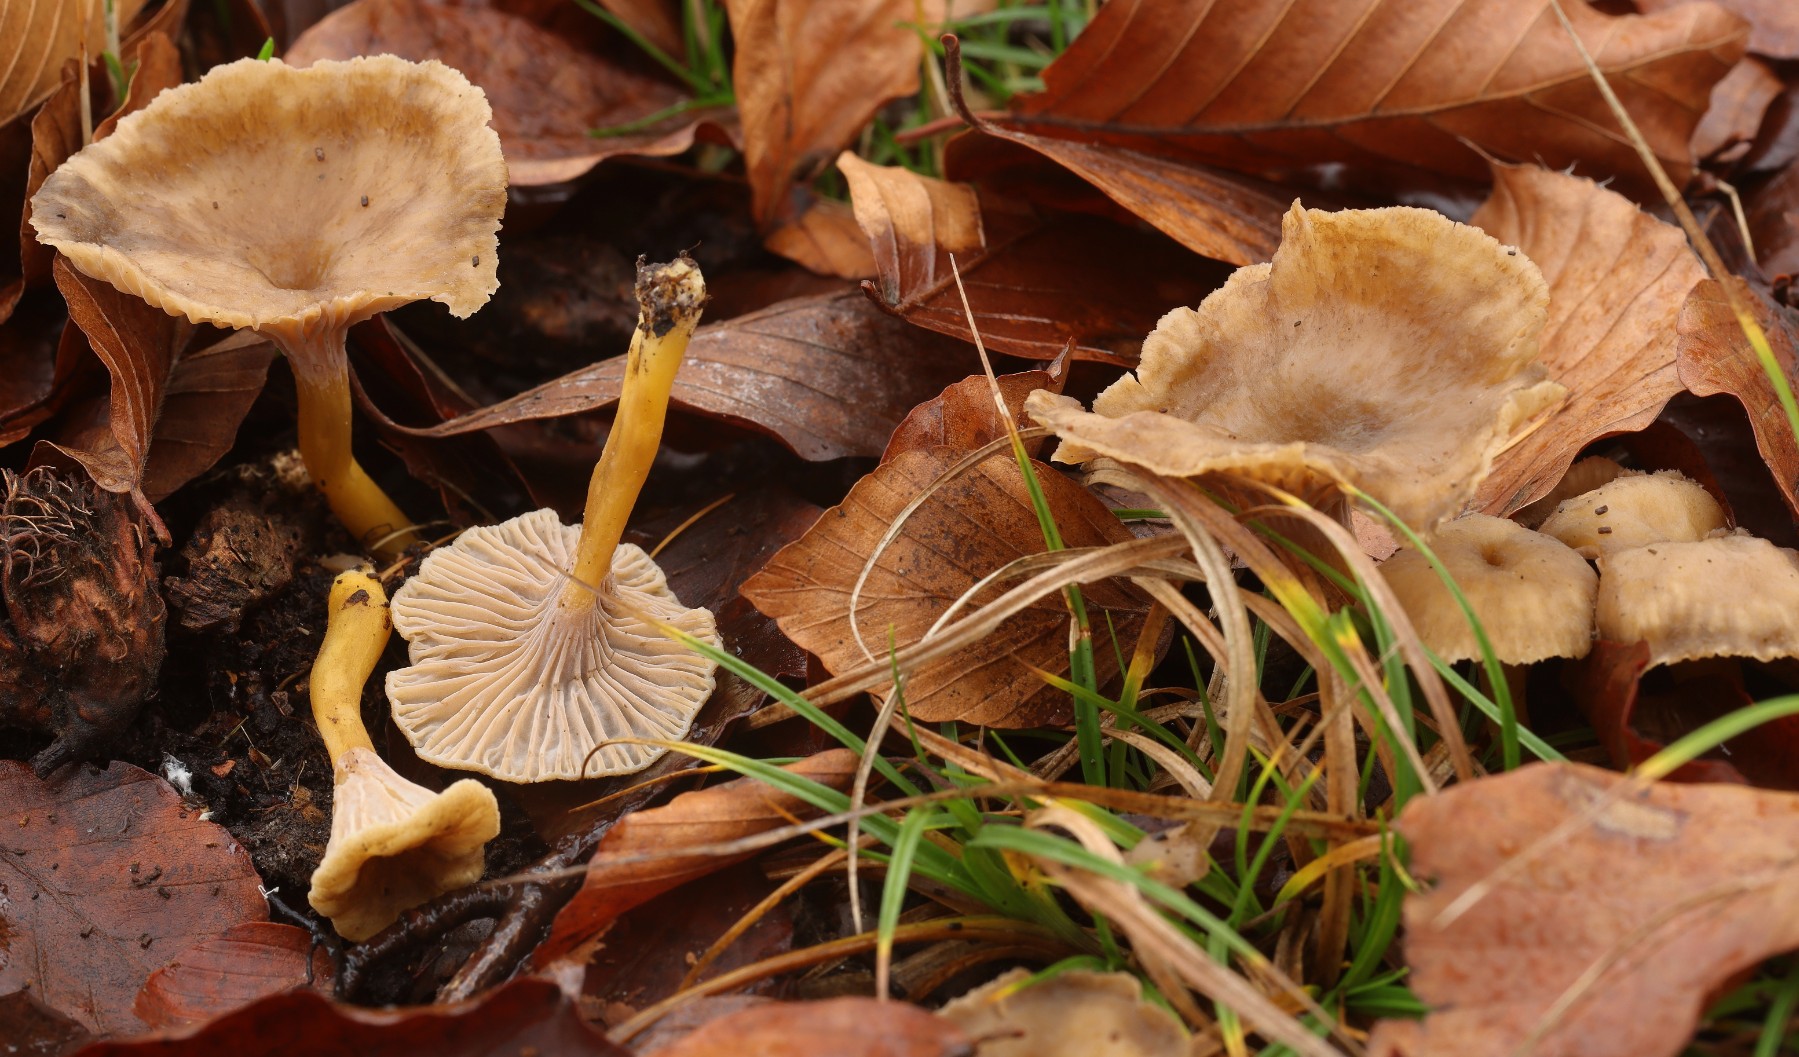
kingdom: Fungi
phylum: Basidiomycota
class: Agaricomycetes
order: Cantharellales
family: Hydnaceae
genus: Craterellus
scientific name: Craterellus tubaeformis
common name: tragt-kantarel
